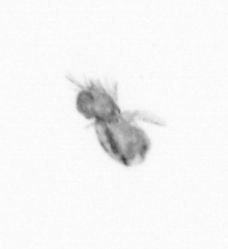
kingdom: Animalia
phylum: Arthropoda
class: Copepoda
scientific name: Copepoda
